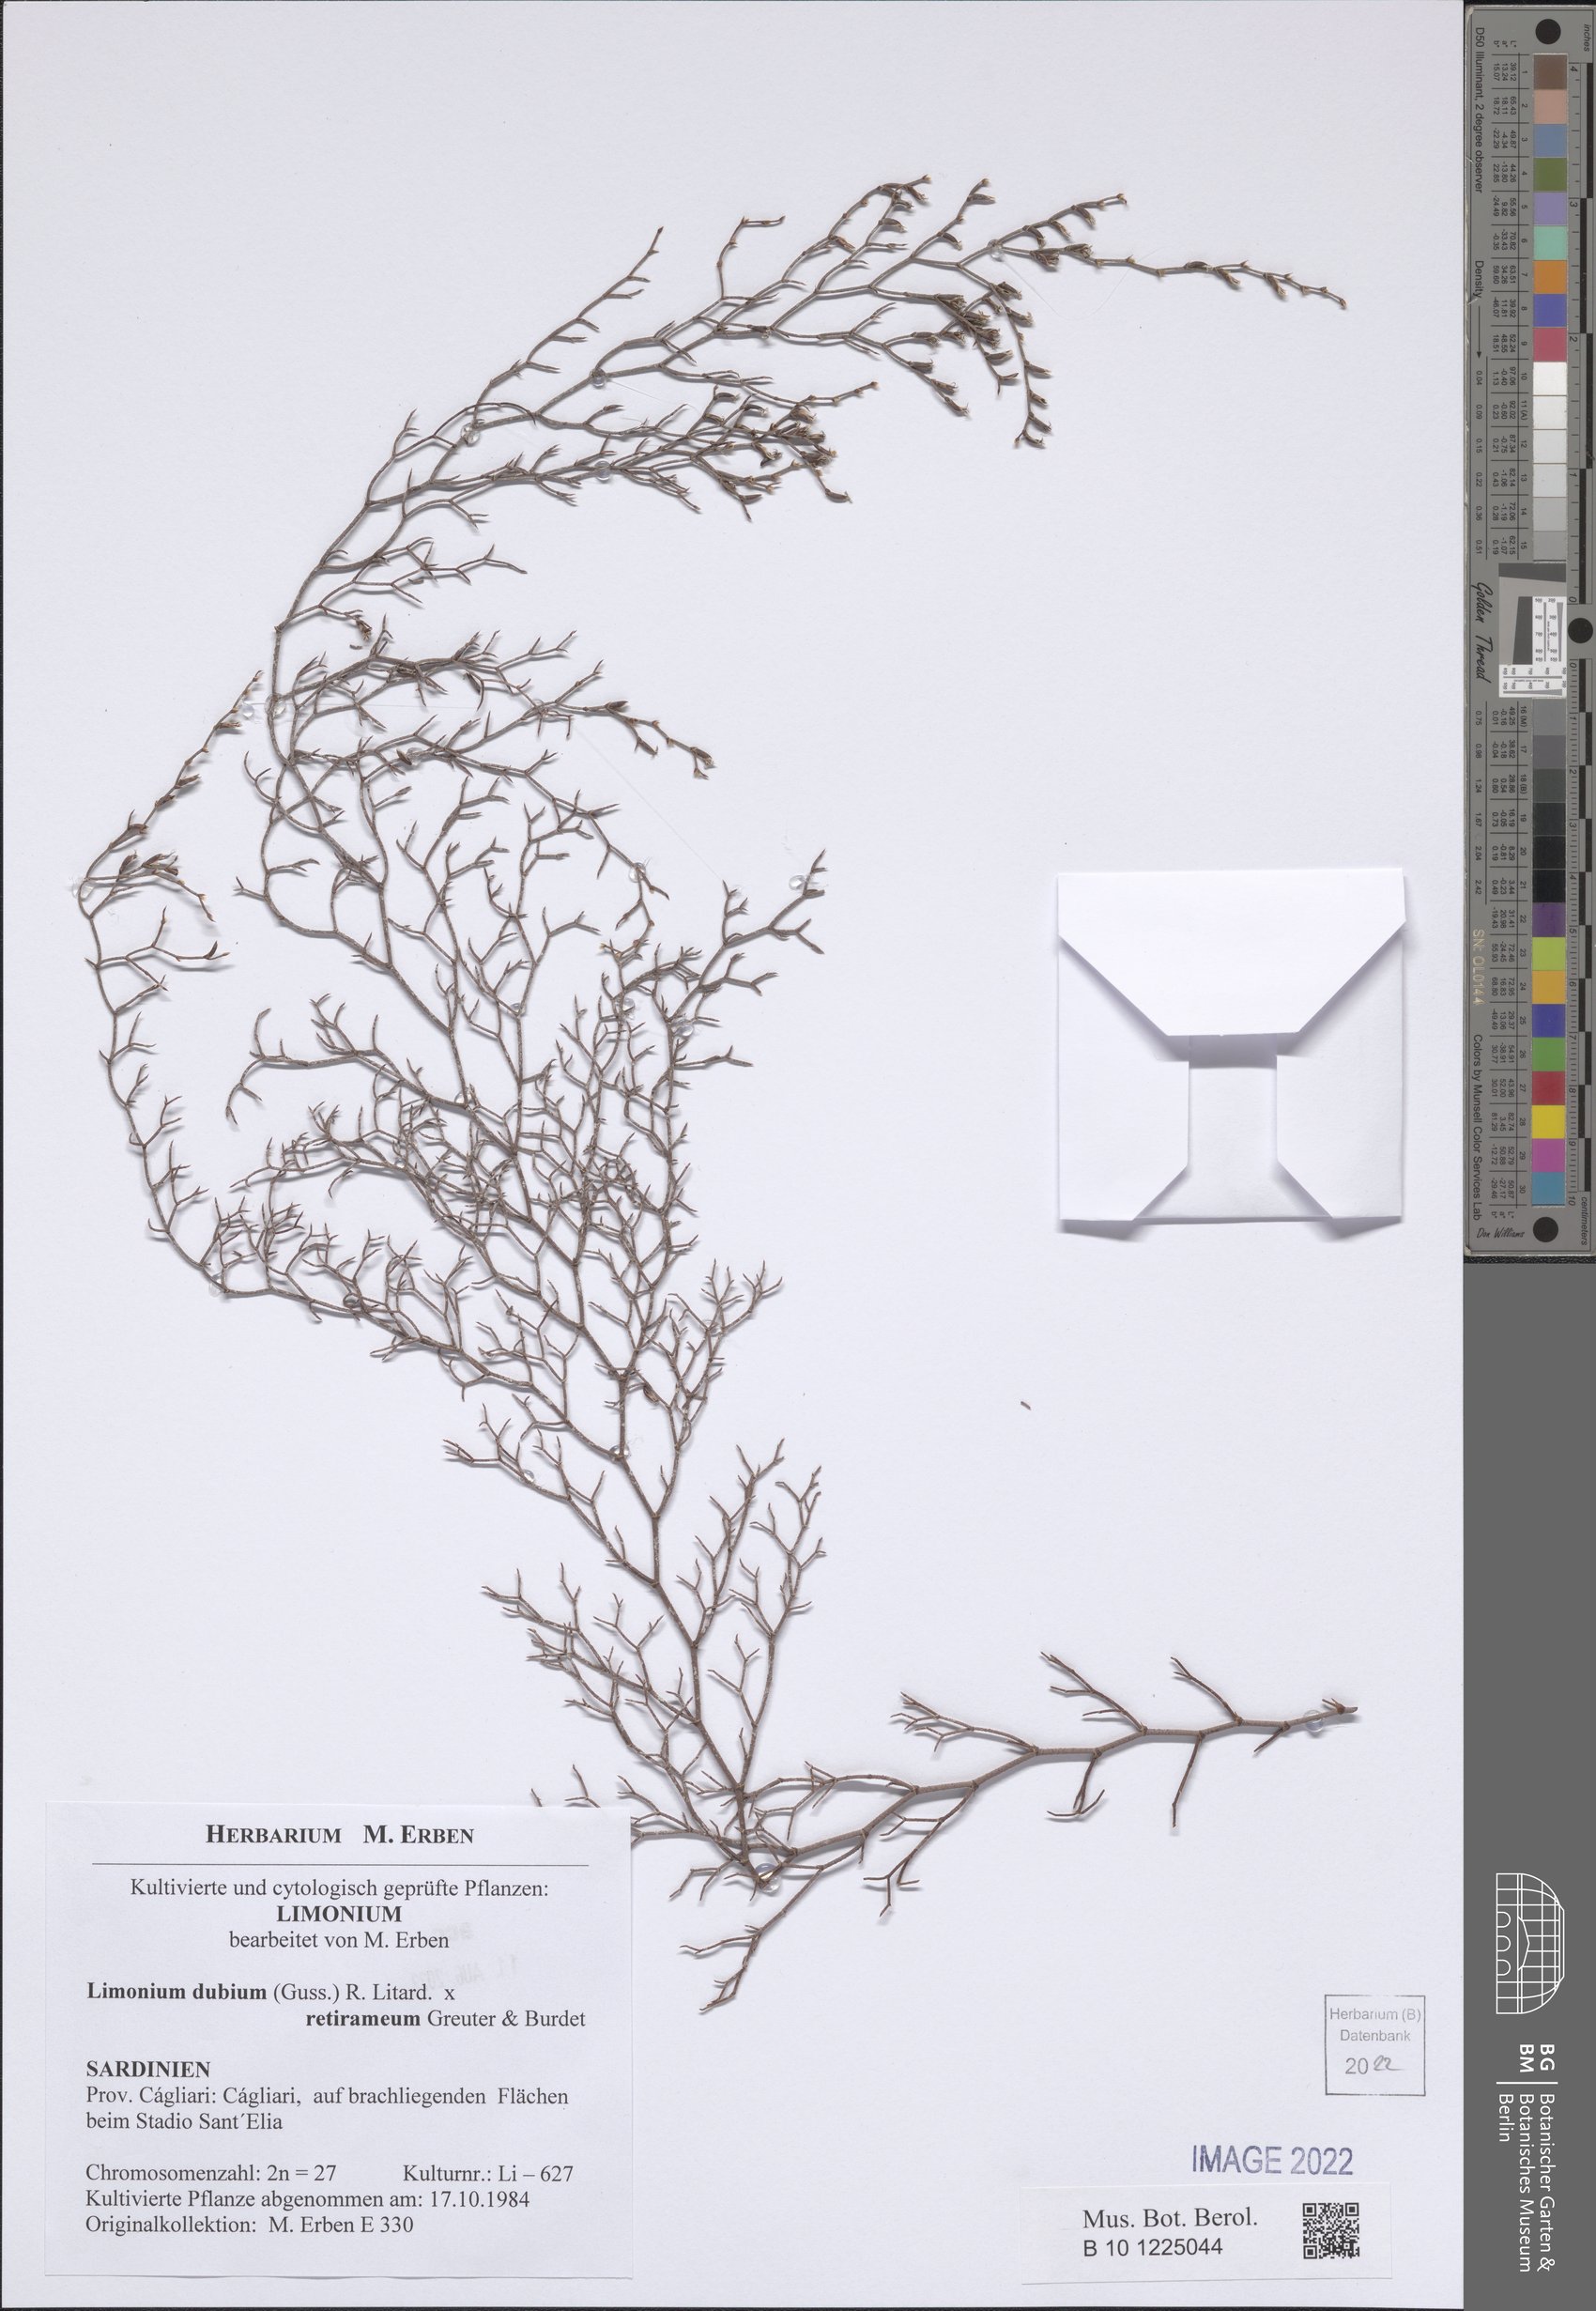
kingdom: Plantae
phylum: Tracheophyta
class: Magnoliopsida
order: Caryophyllales
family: Plumbaginaceae
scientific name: Plumbaginaceae
